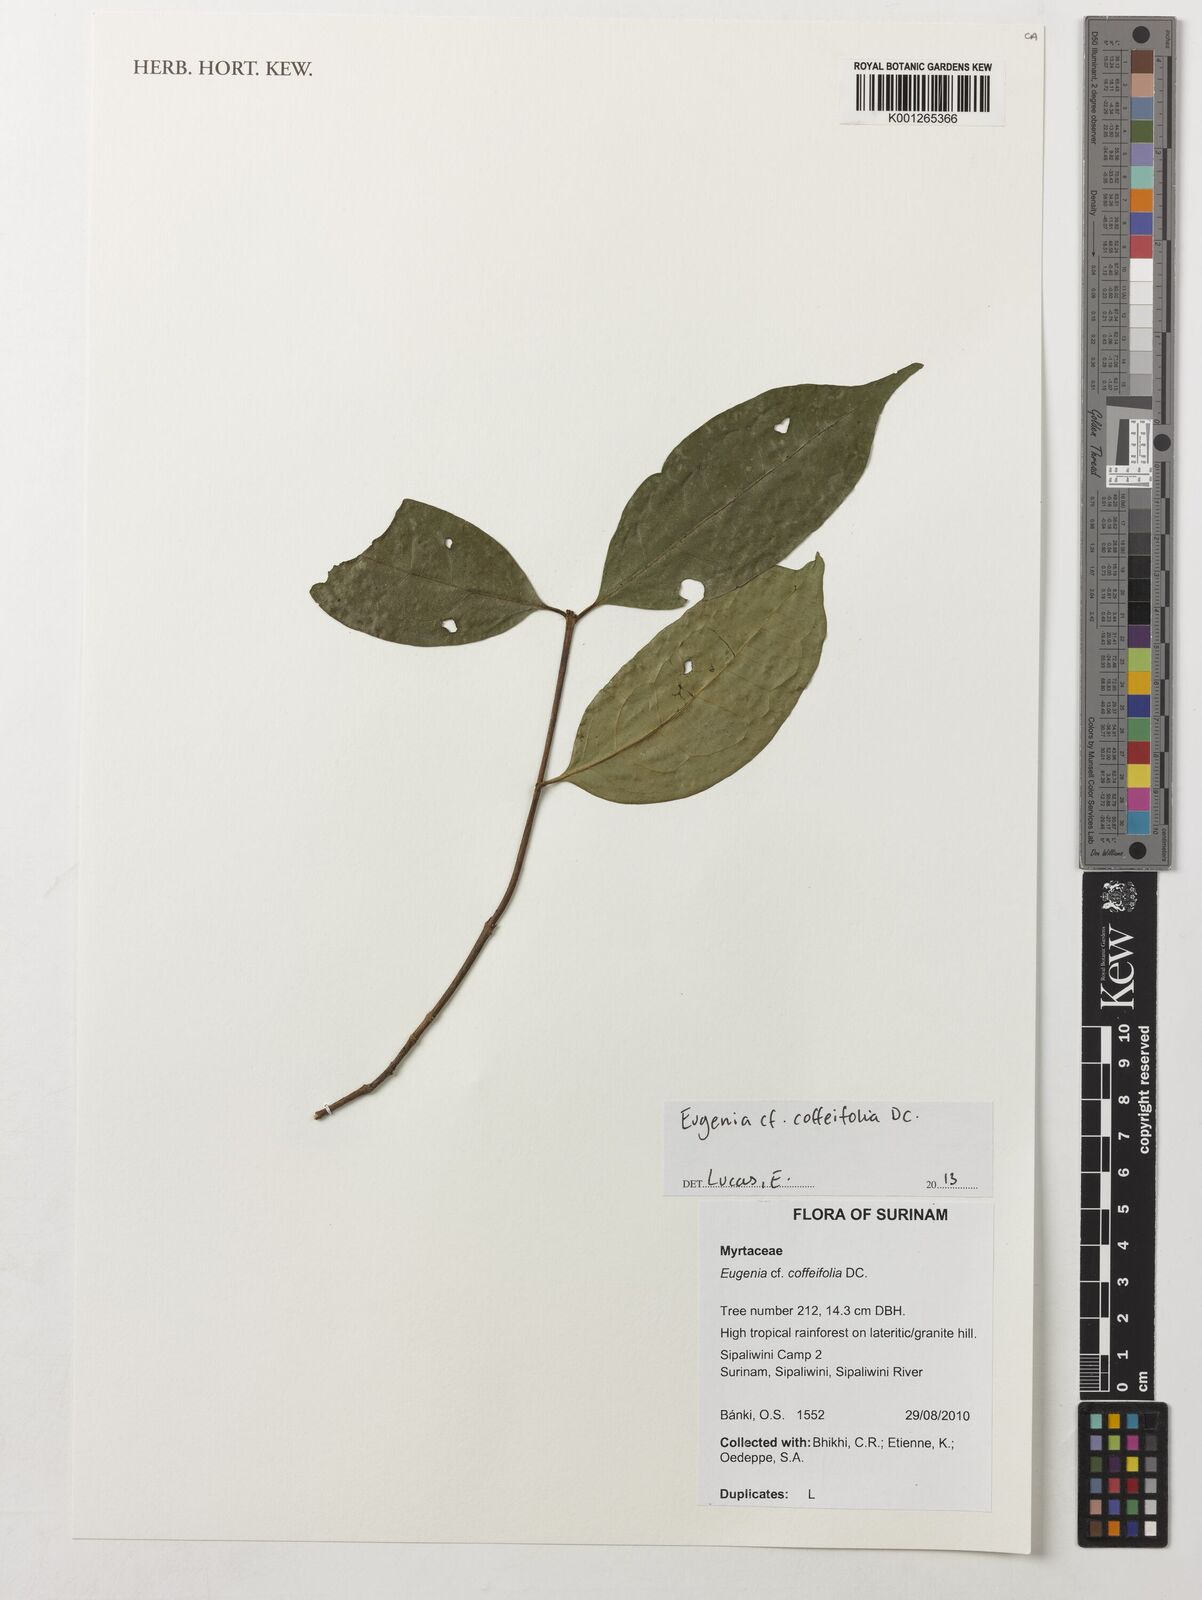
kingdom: Plantae
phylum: Tracheophyta
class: Magnoliopsida
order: Myrtales
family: Myrtaceae
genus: Eugenia
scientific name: Eugenia coffeifolia
